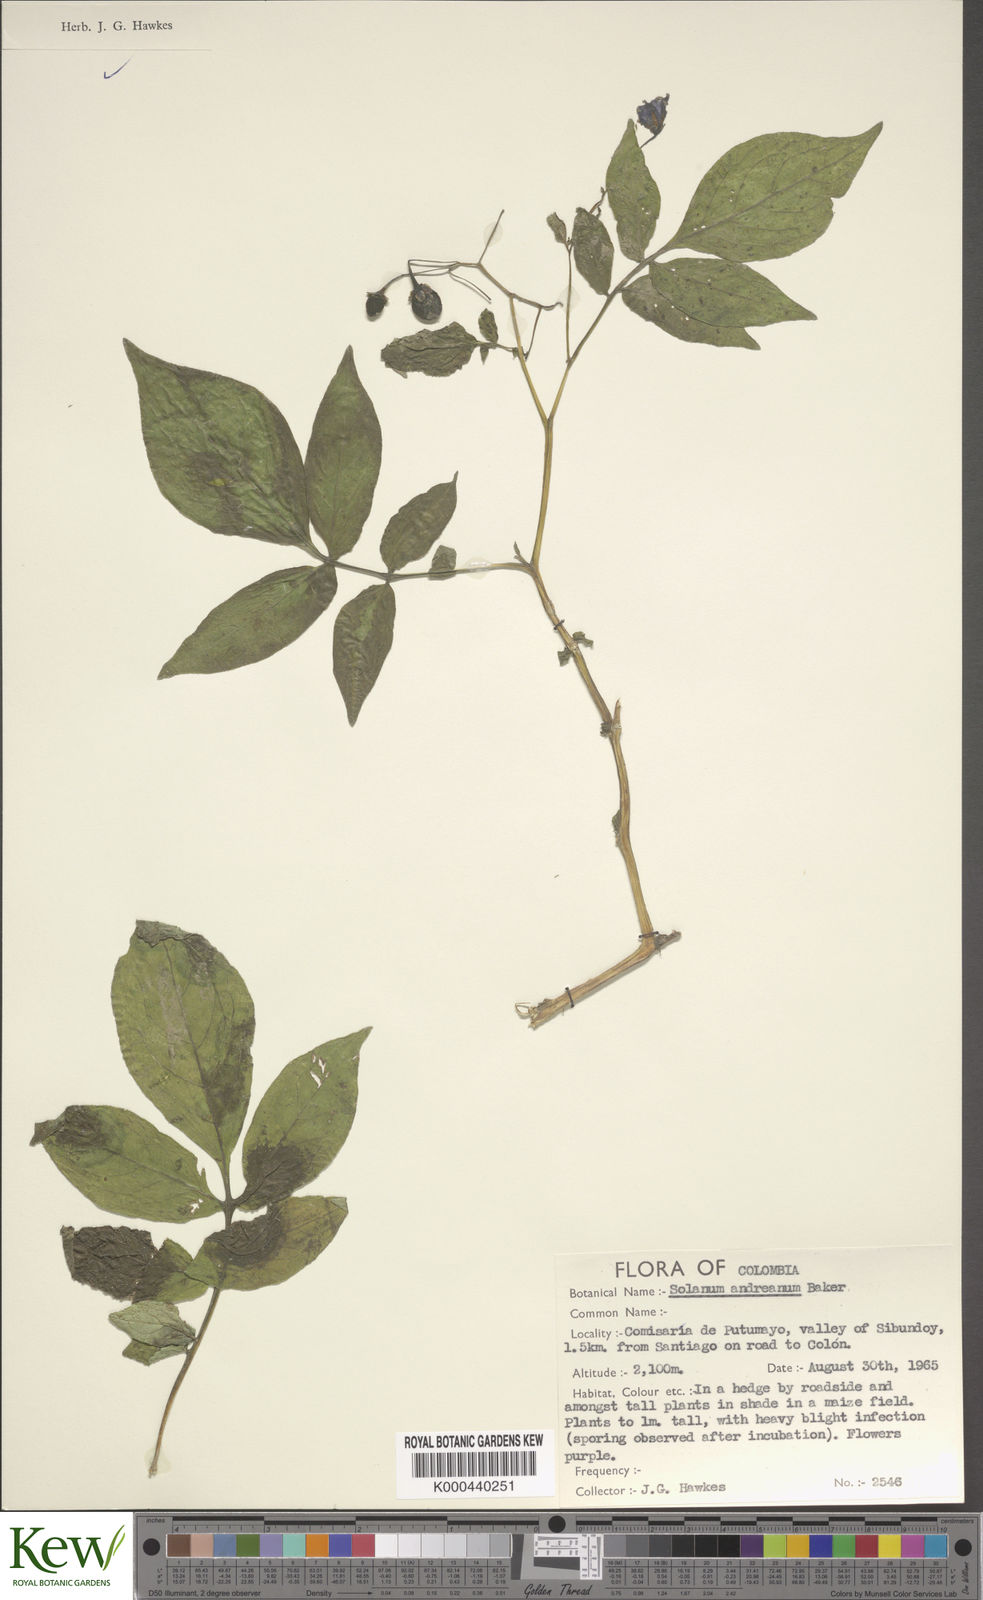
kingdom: Plantae
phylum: Tracheophyta
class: Magnoliopsida
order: Solanales
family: Solanaceae
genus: Solanum
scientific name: Solanum andreanum
